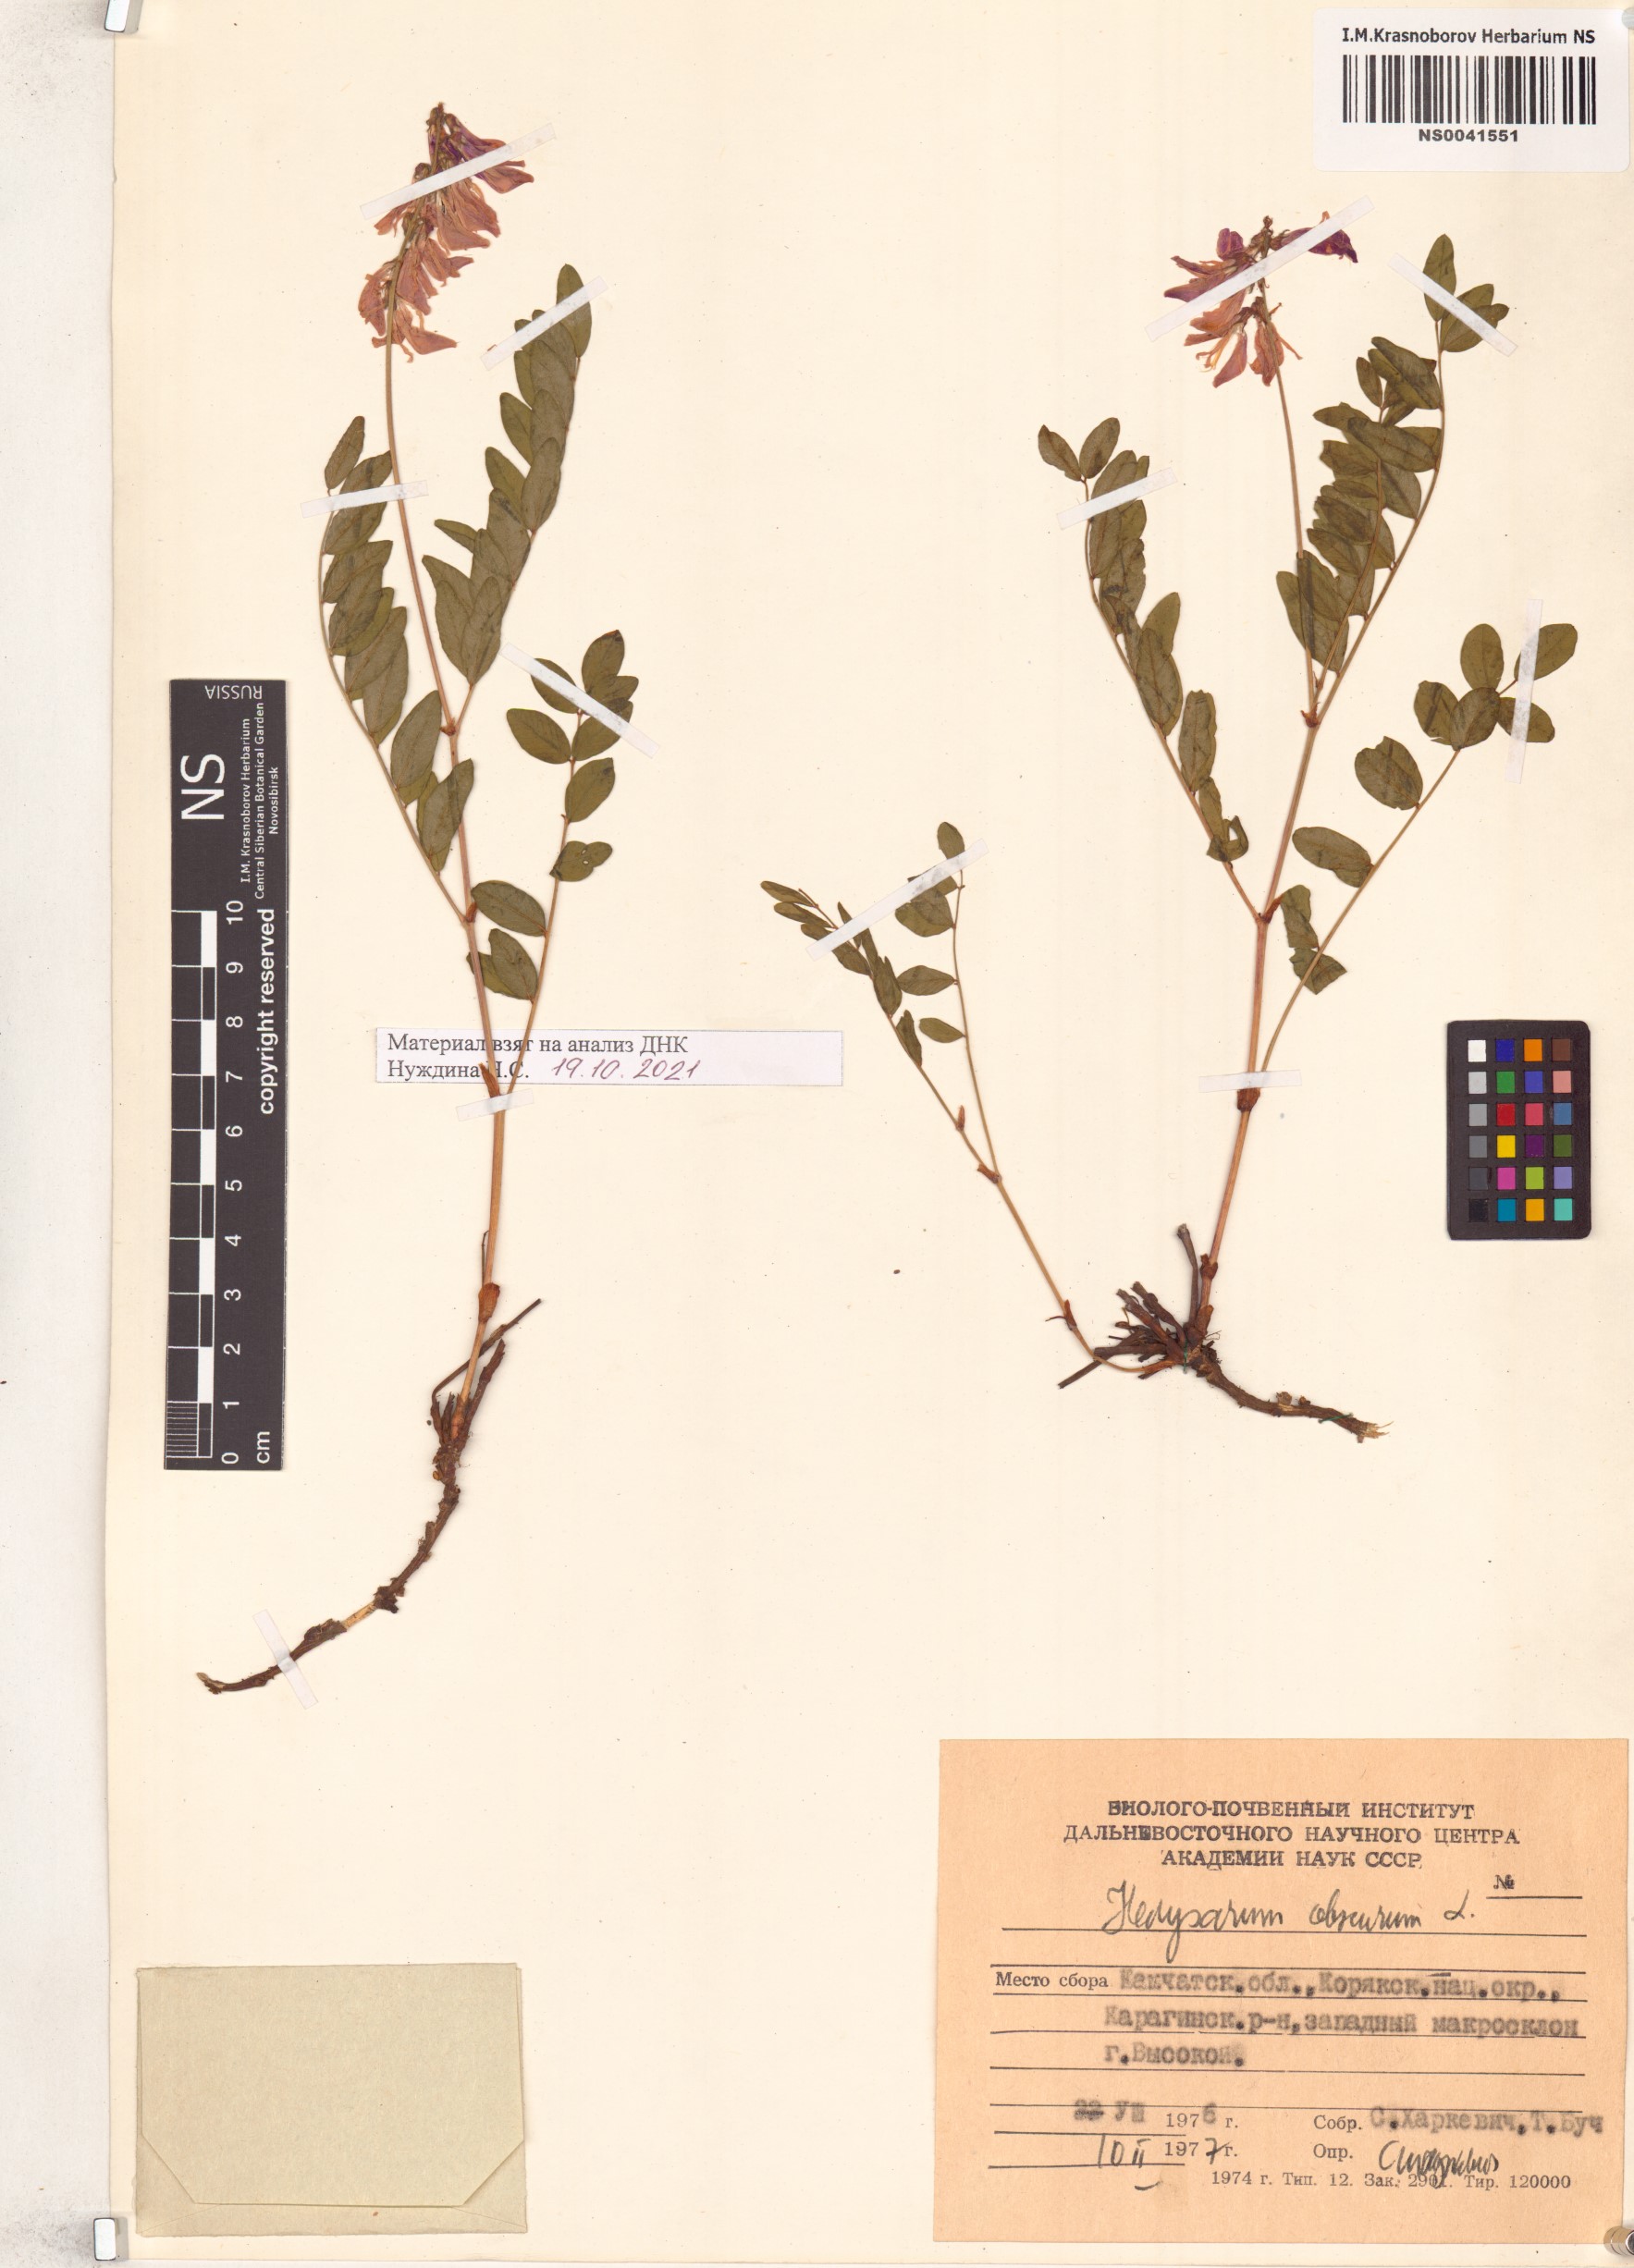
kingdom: Plantae
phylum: Tracheophyta
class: Magnoliopsida
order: Fabales
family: Fabaceae
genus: Hedysarum
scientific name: Hedysarum hedysaroides
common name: Alpine french-honeysuckle
